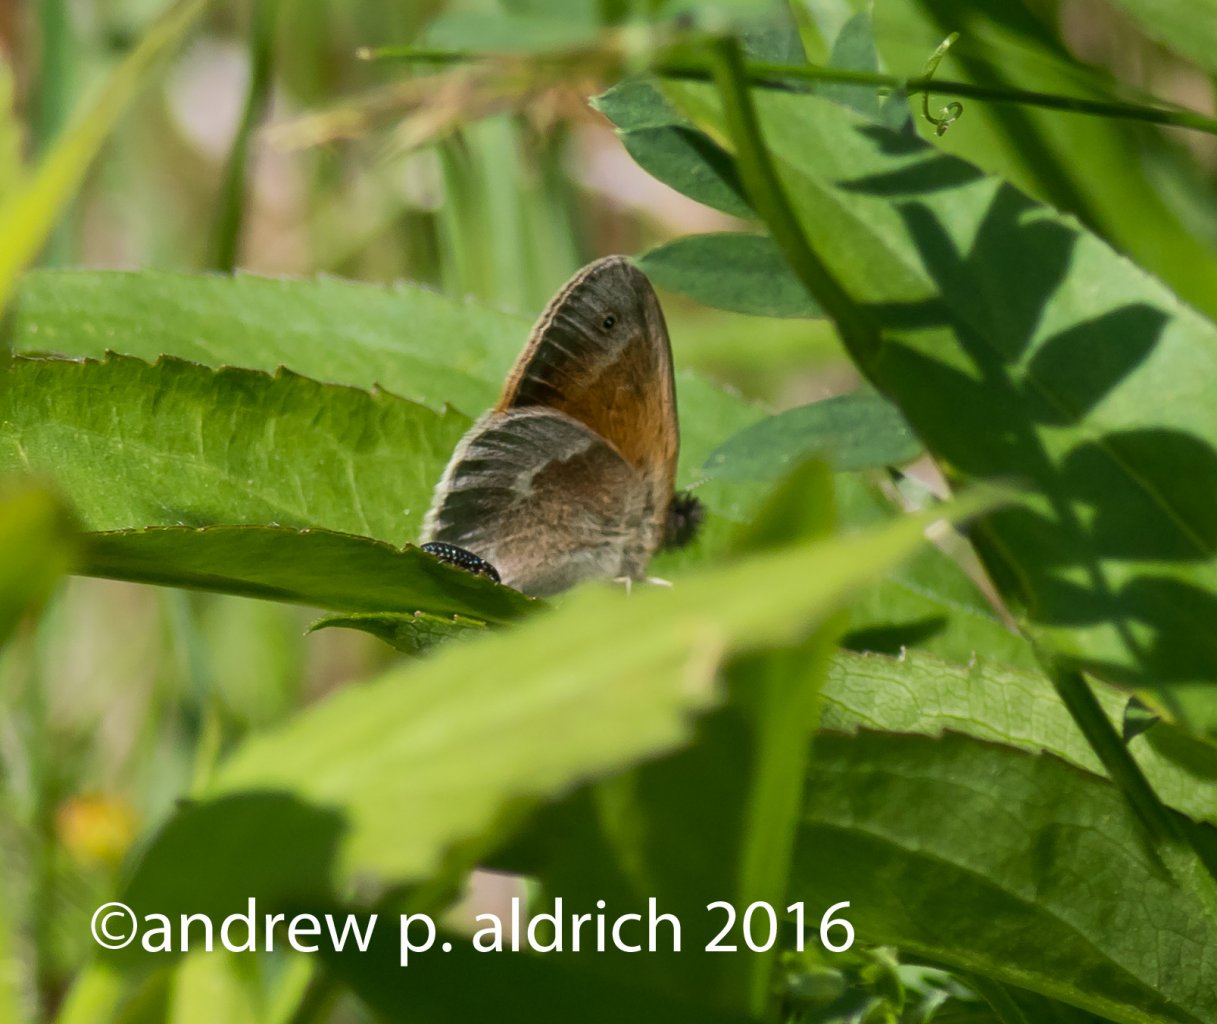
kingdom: Animalia
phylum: Arthropoda
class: Insecta
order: Lepidoptera
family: Nymphalidae
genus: Coenonympha
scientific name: Coenonympha tullia
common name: Large Heath
